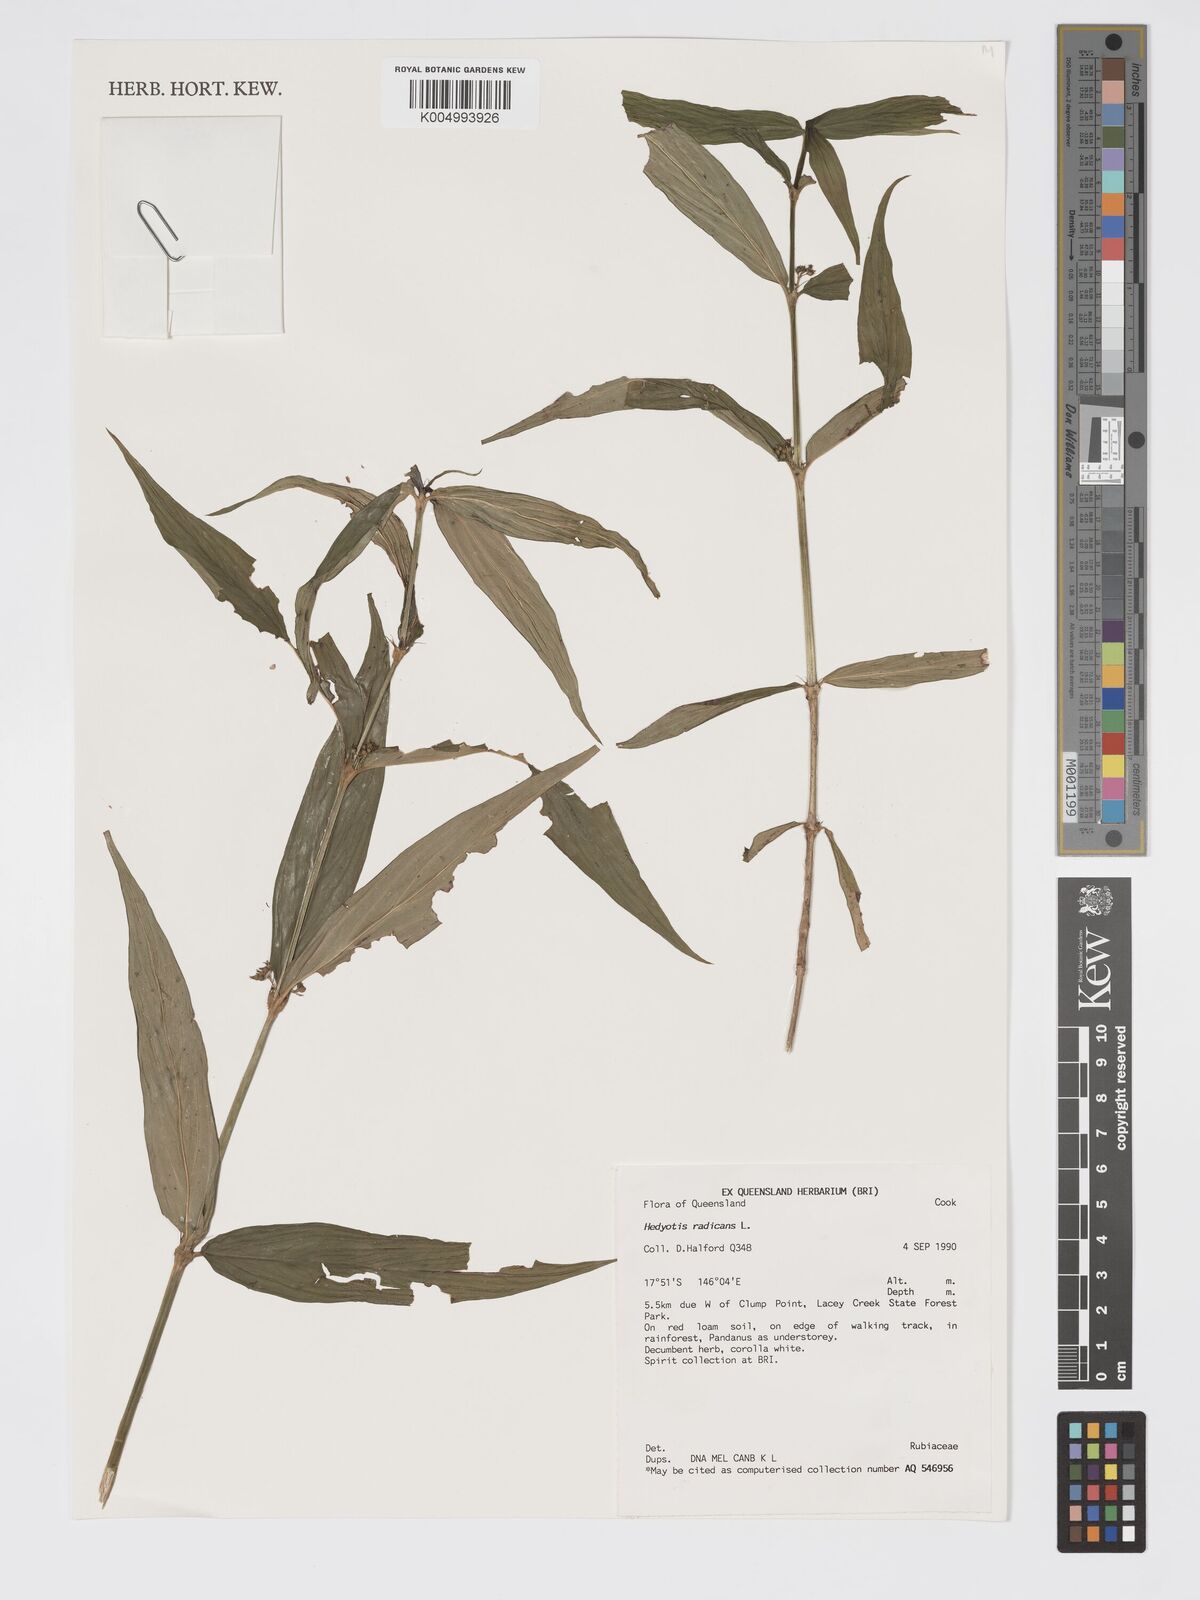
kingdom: Plantae
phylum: Tracheophyta
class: Magnoliopsida
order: Gentianales
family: Rubiaceae
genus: Oldenlandia
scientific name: Oldenlandia
